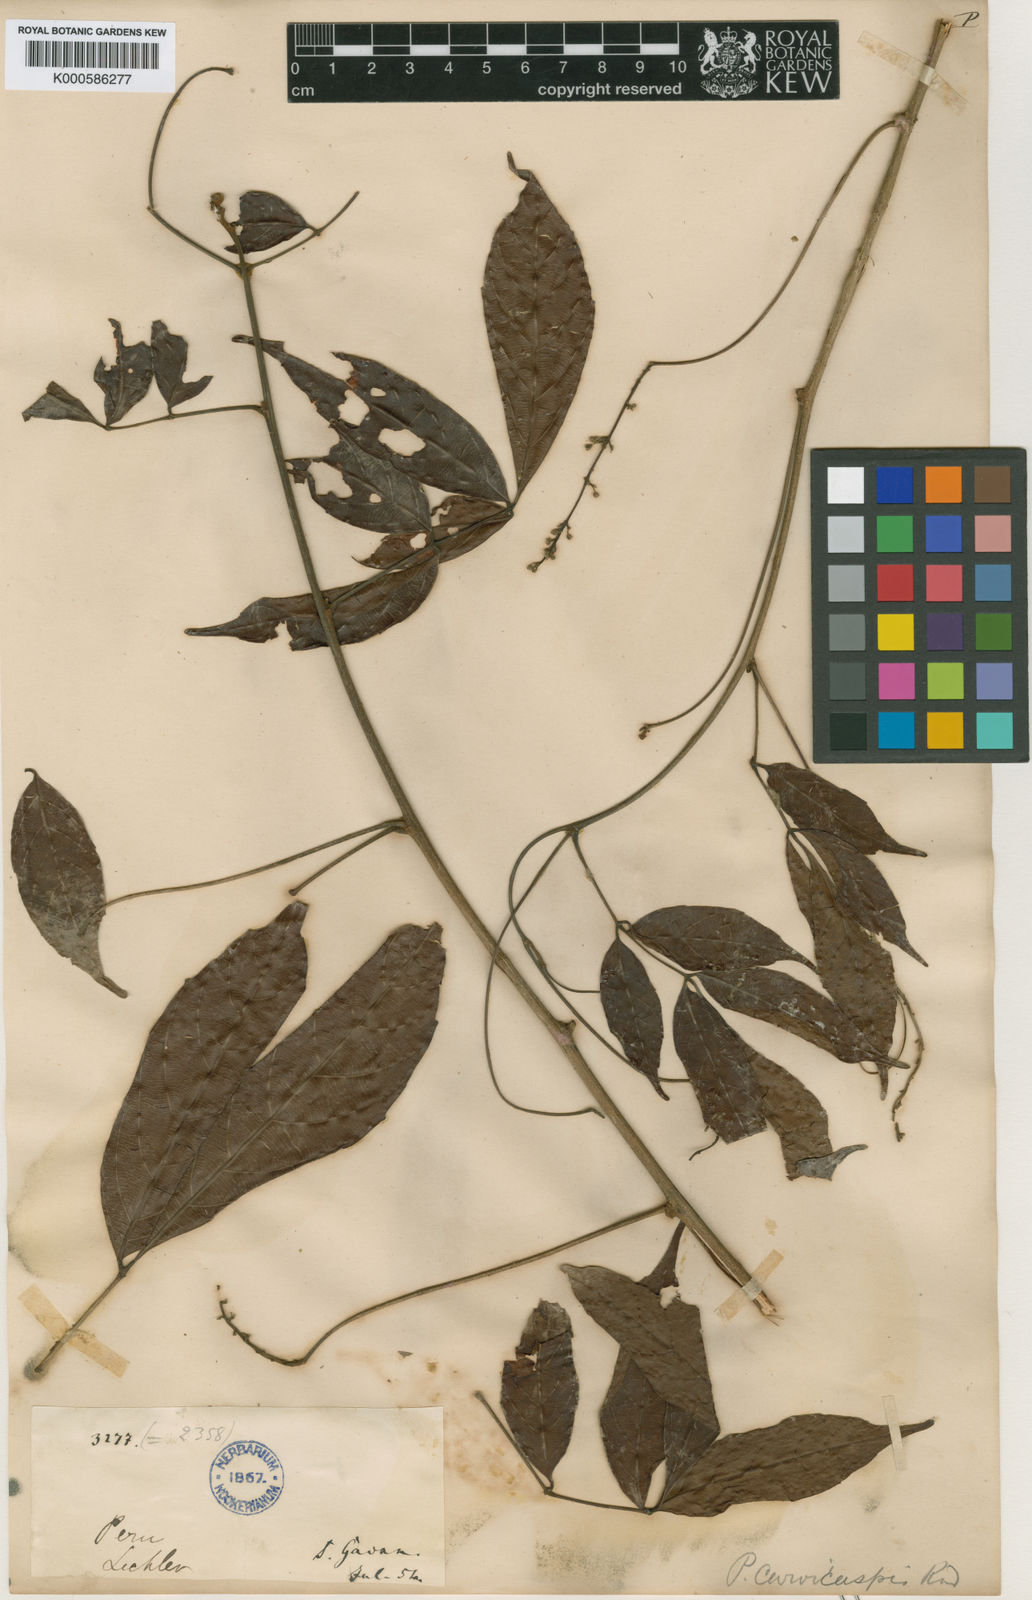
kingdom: Plantae
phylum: Tracheophyta
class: Magnoliopsida
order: Sapindales
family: Sapindaceae
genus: Paullinia
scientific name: Paullinia capreolata
